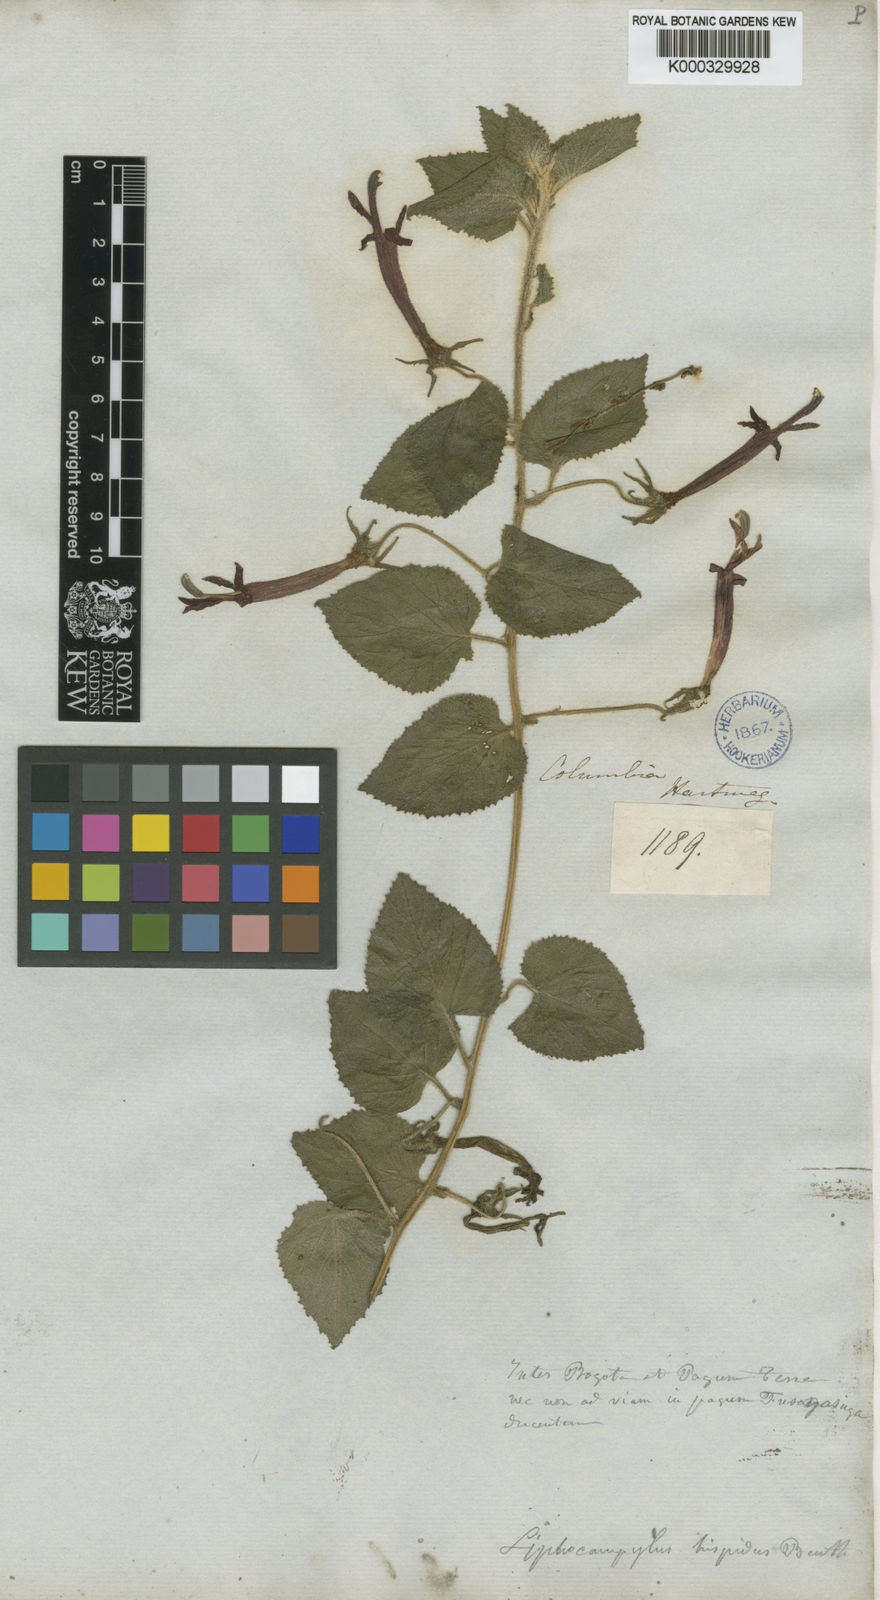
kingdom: Plantae
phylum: Tracheophyta
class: Magnoliopsida
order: Asterales
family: Campanulaceae
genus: Siphocampylus
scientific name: Siphocampylus hispidus
